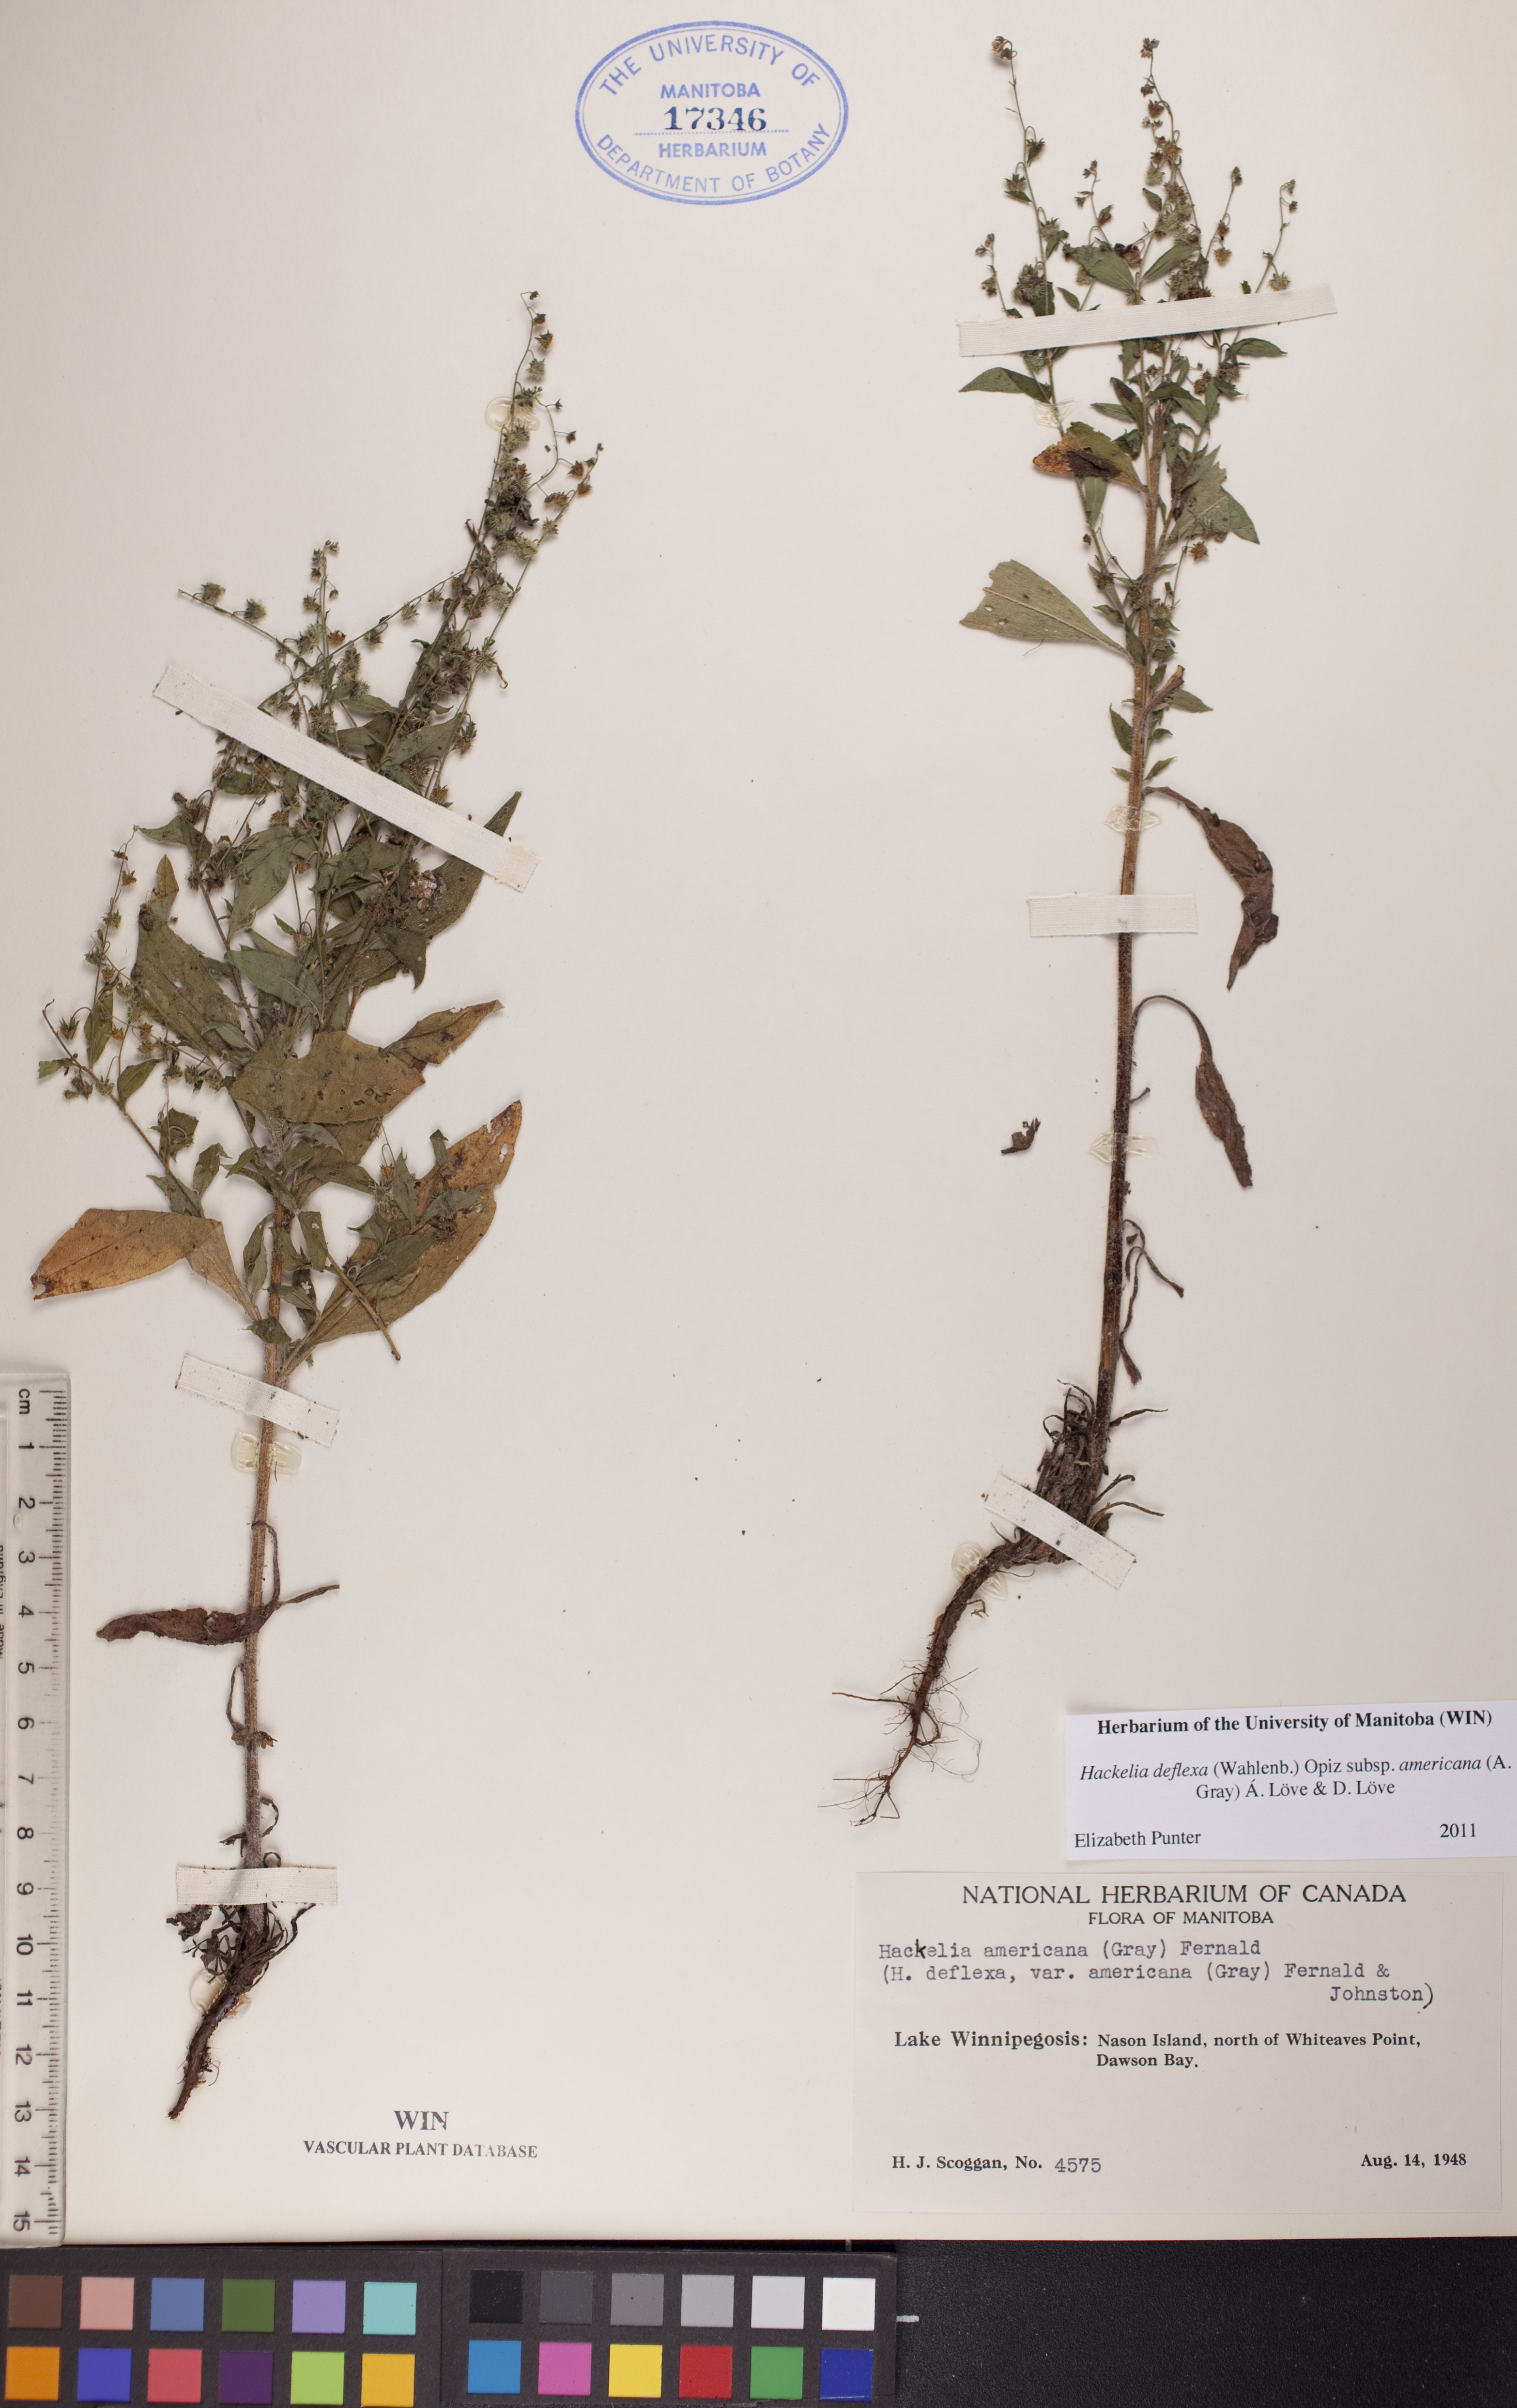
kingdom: Plantae
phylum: Tracheophyta
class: Magnoliopsida
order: Boraginales
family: Boraginaceae
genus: Hackelia
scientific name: Hackelia deflexa
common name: Nodding stickseed
